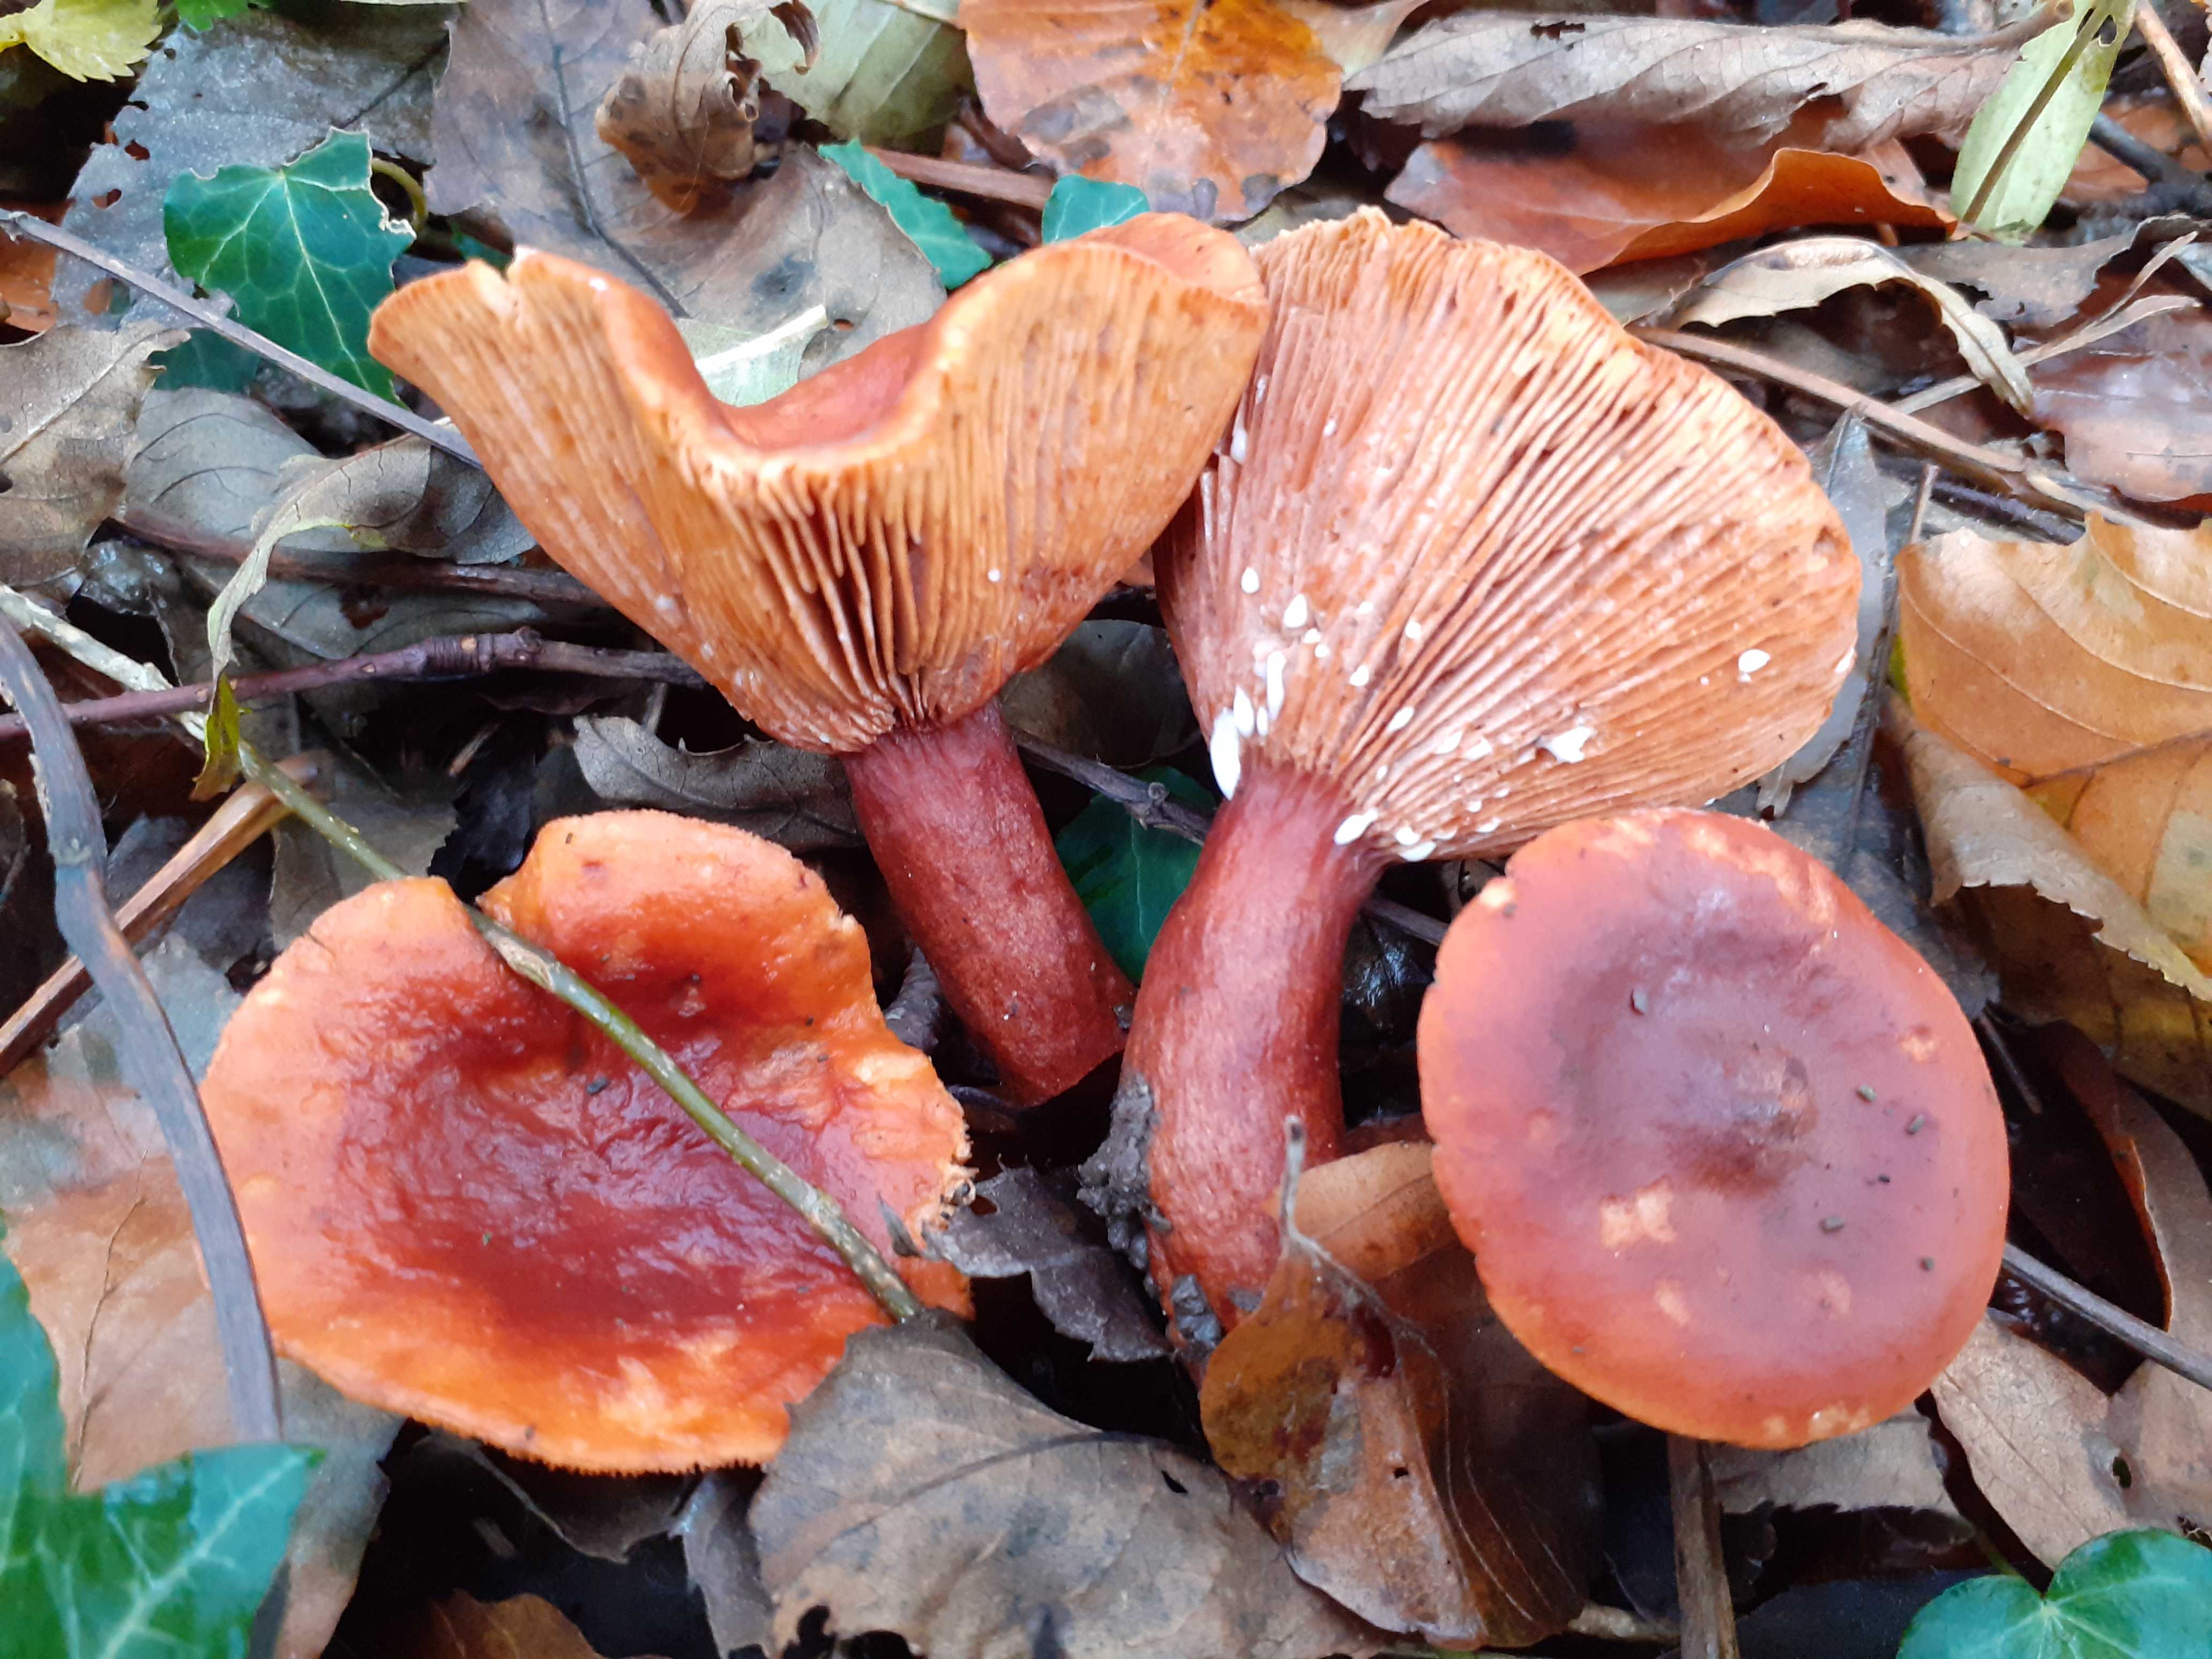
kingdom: Fungi
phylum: Basidiomycota
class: Agaricomycetes
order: Russulales
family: Russulaceae
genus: Lactarius
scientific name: Lactarius fulvissimus
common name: ræve-mælkehat
